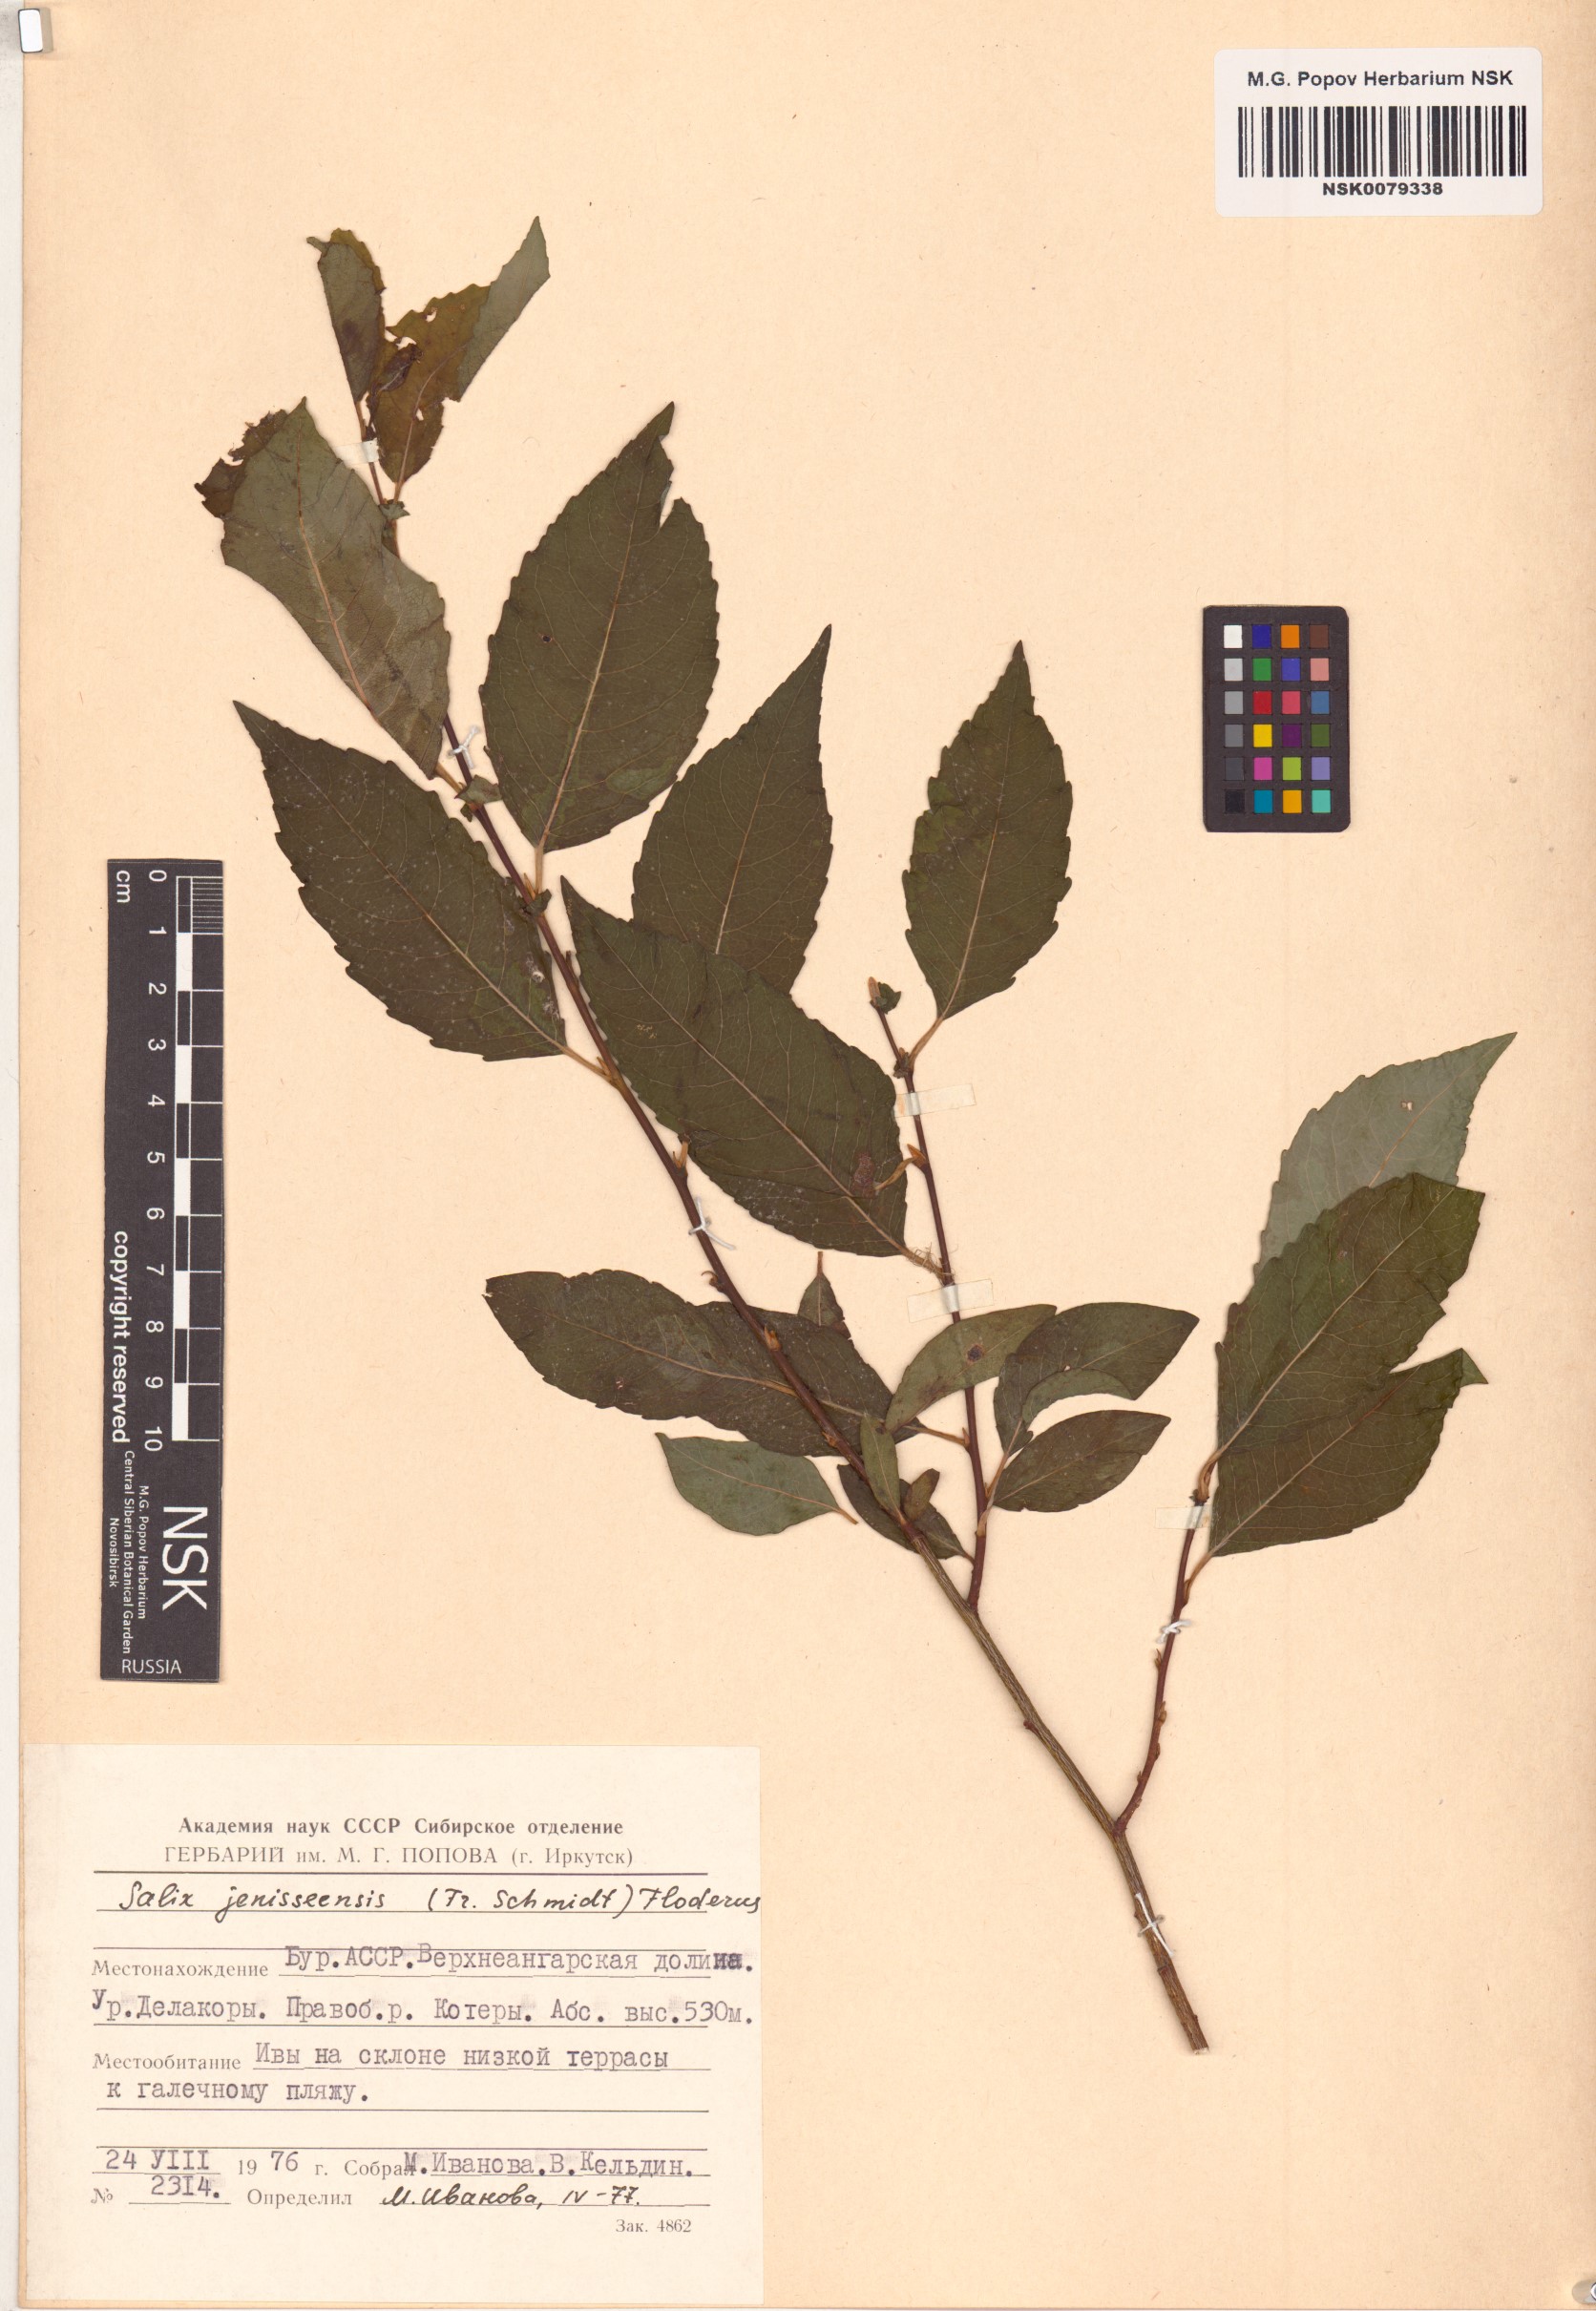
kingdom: Plantae
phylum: Tracheophyta
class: Magnoliopsida
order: Malpighiales
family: Salicaceae
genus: Salix
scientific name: Salix jenisseensis
